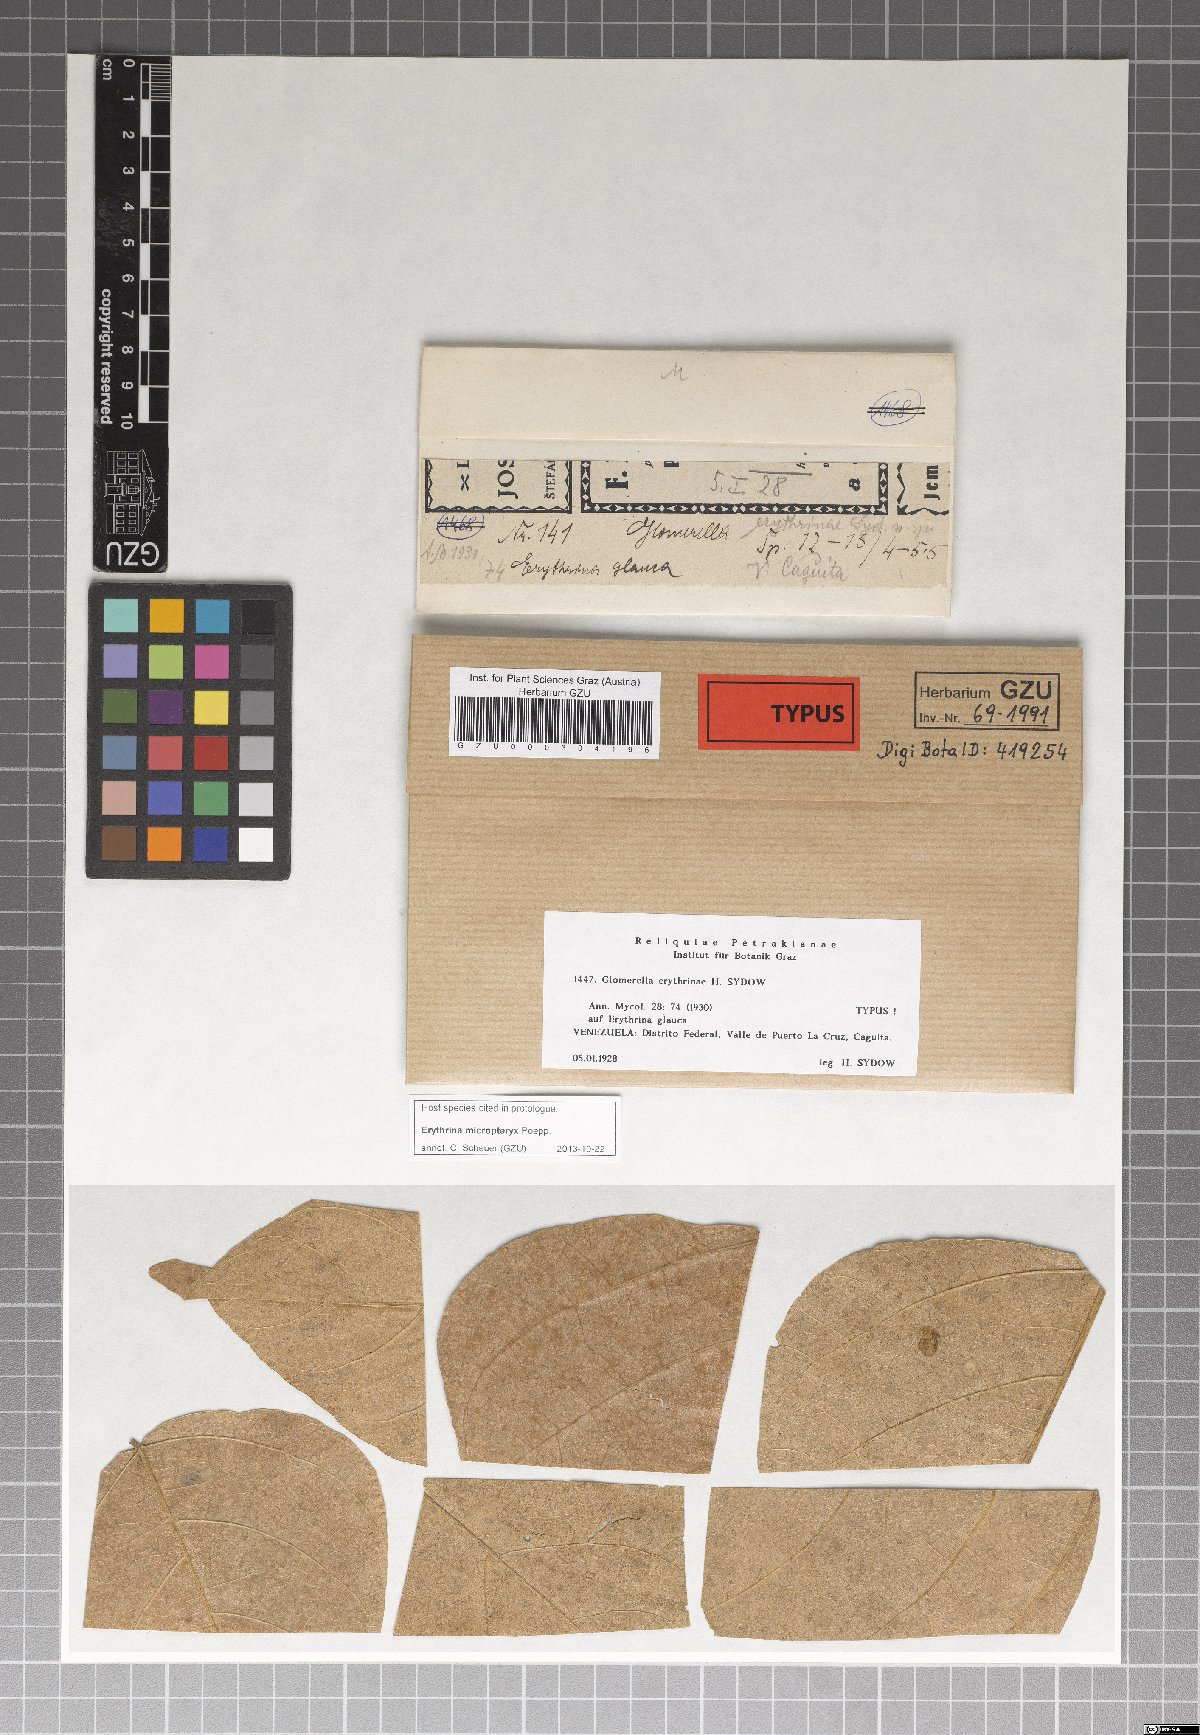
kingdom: Fungi
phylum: Ascomycota
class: Sordariomycetes
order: Glomerellales
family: Glomerellaceae
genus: Glomerella
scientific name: Glomerella erythrinae
